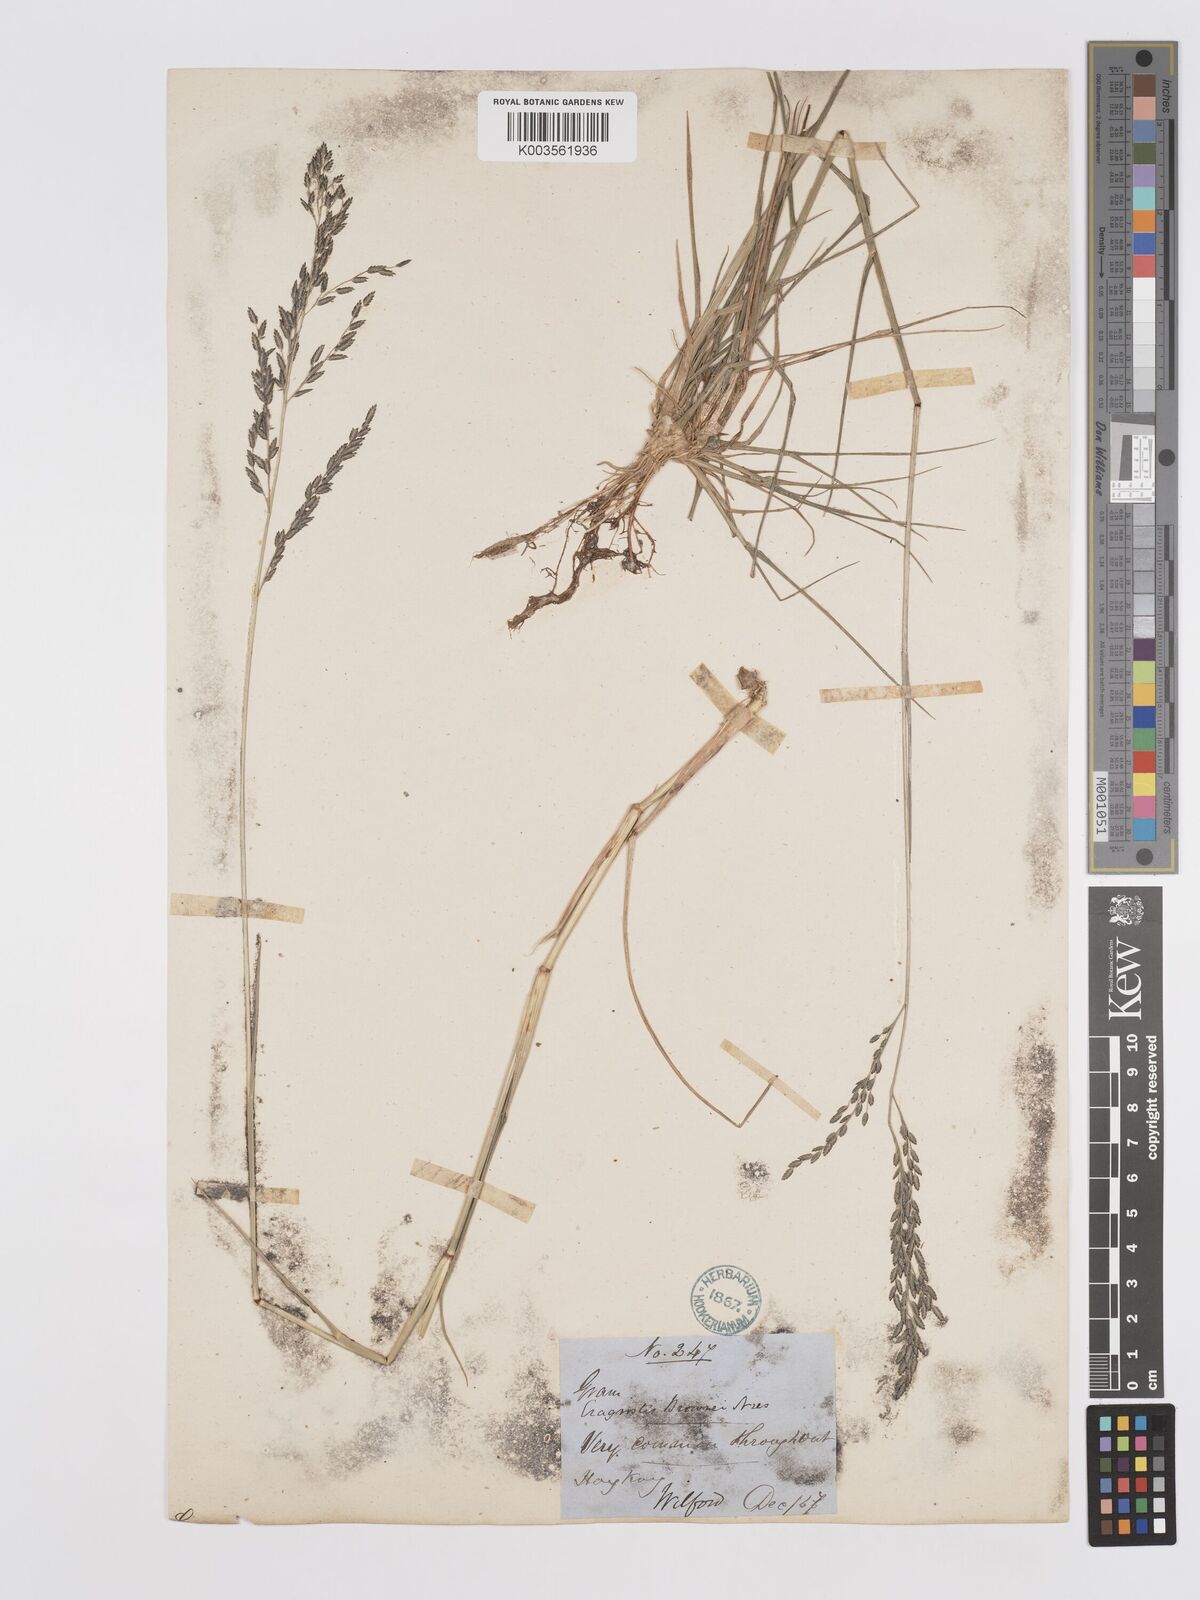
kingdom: Plantae
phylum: Tracheophyta
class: Liliopsida
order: Poales
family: Poaceae
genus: Eragrostis
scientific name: Eragrostis atrovirens
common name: Thalia lovegrass
